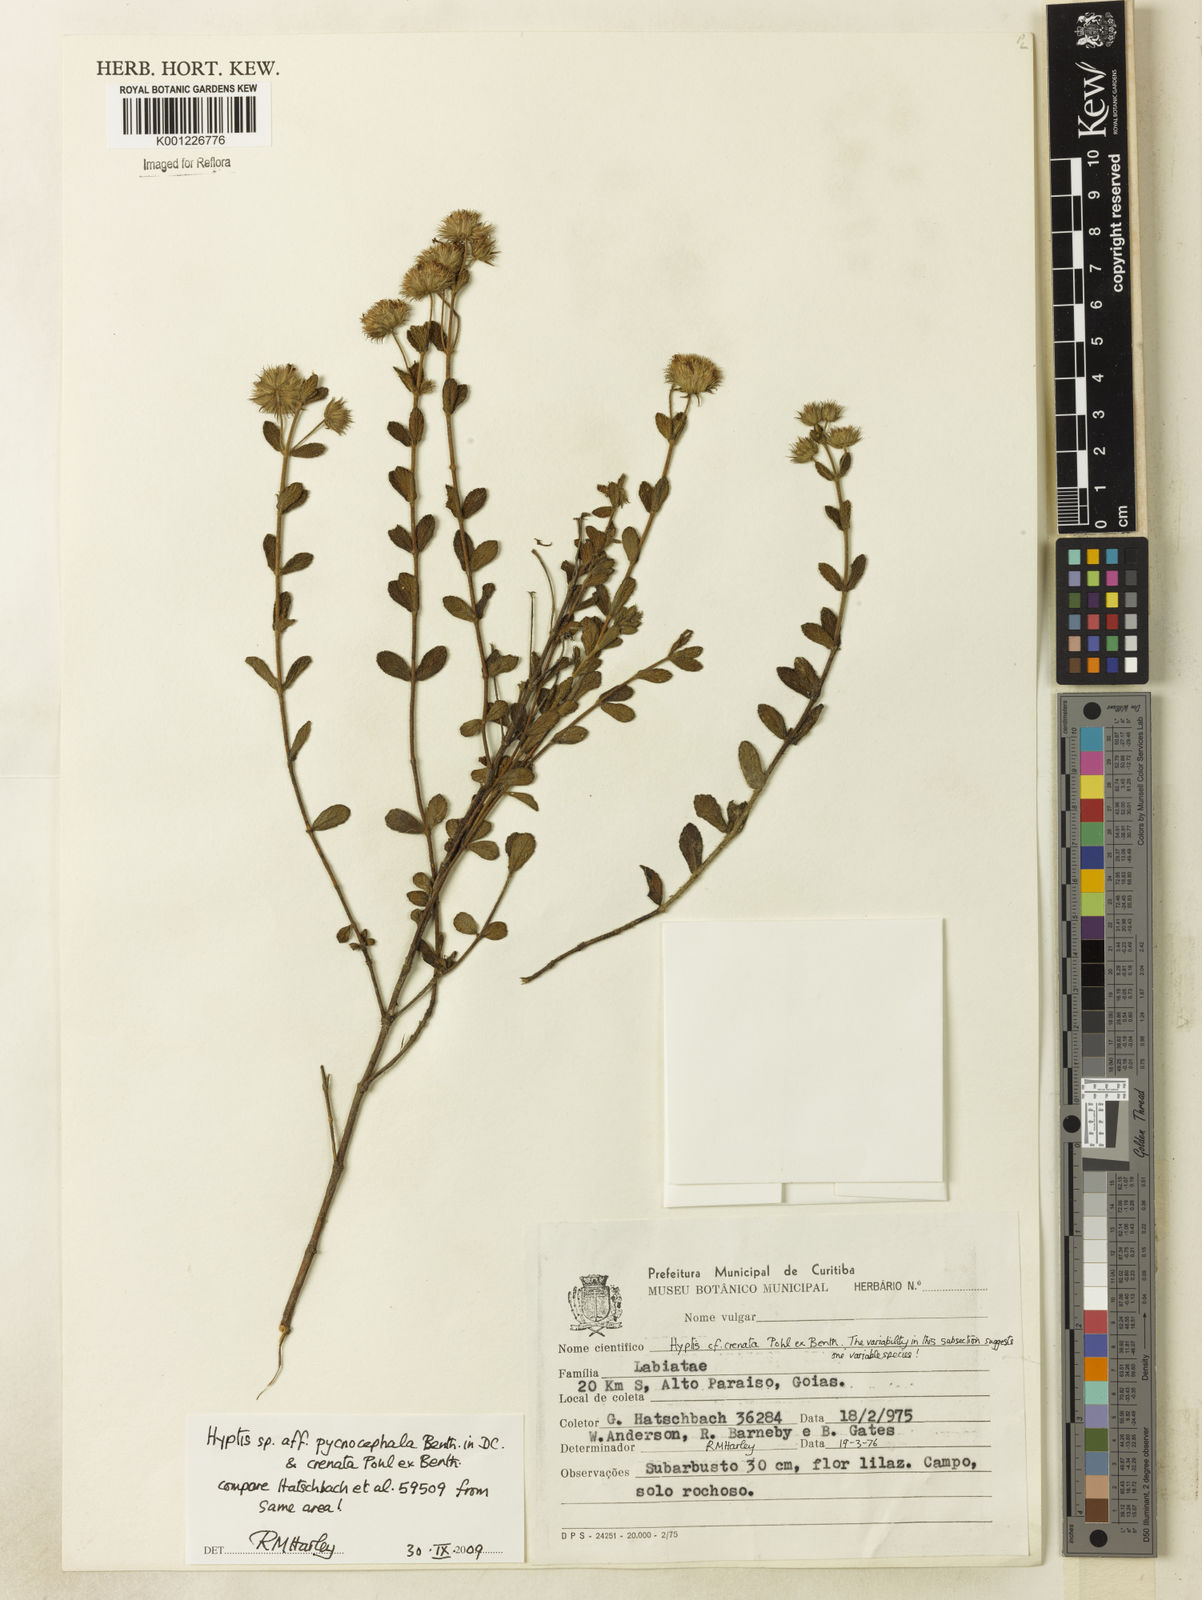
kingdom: Plantae
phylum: Tracheophyta
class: Magnoliopsida
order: Lamiales
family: Lamiaceae
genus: Hyptis
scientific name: Hyptis pycnocephala
